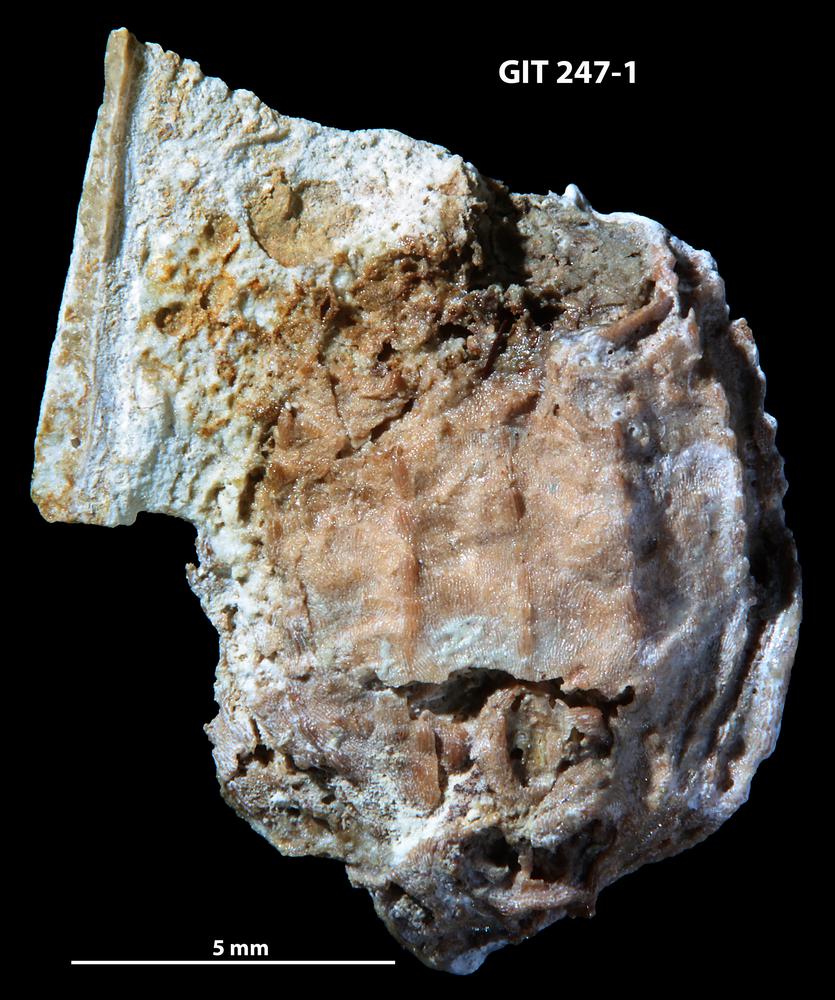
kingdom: Animalia
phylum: Chordata
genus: Aestiaspis
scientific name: Aestiaspis
